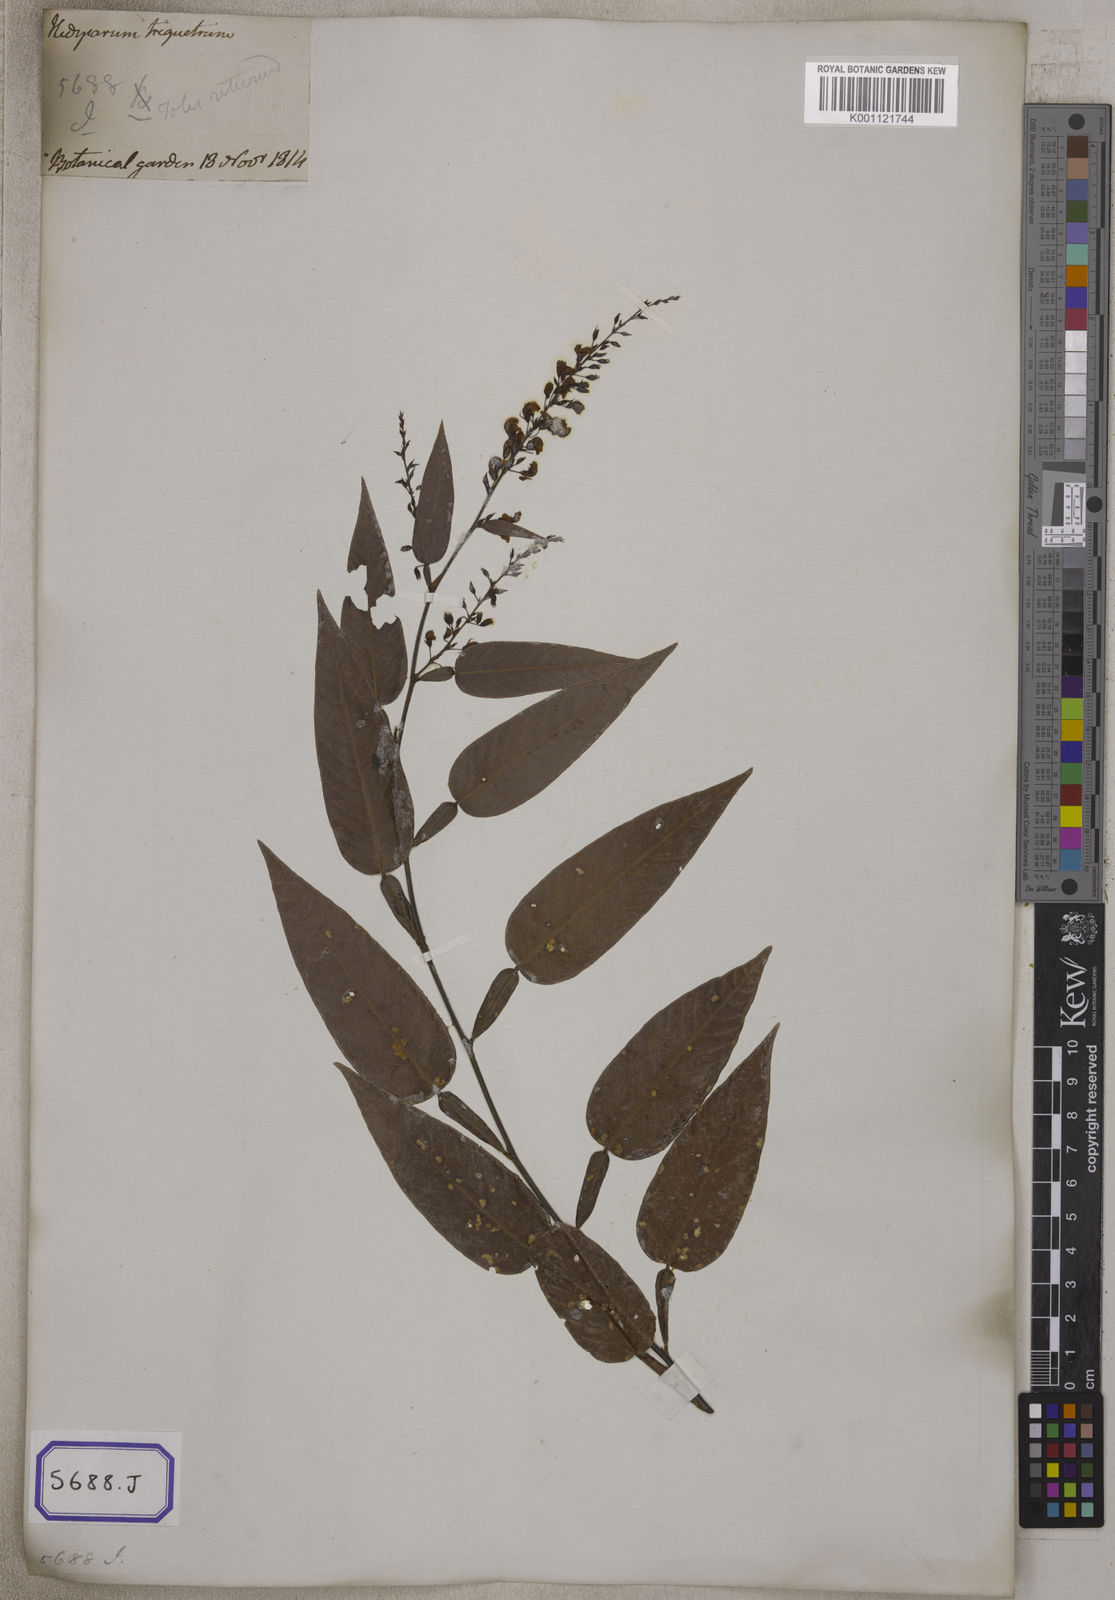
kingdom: Plantae
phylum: Tracheophyta
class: Magnoliopsida
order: Fabales
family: Fabaceae
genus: Tadehagi
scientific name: Tadehagi triquetrum
